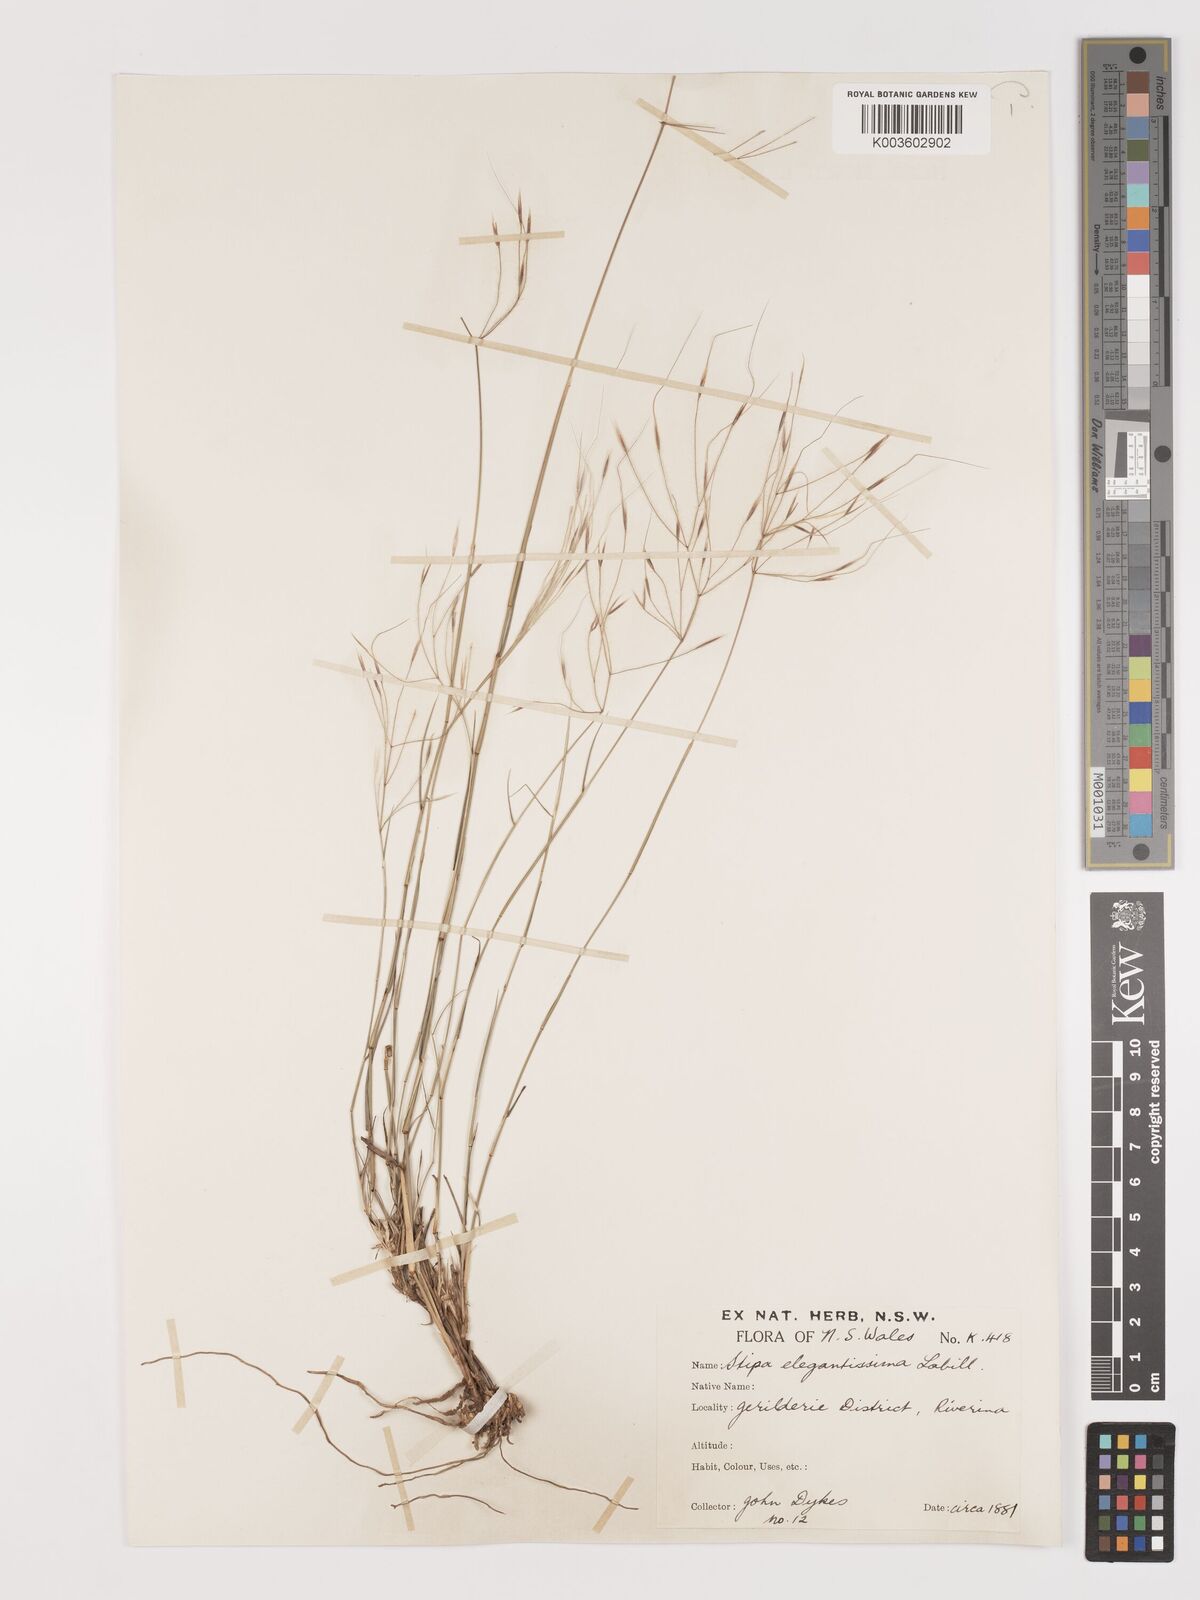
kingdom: Plantae
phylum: Tracheophyta
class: Liliopsida
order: Poales
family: Poaceae
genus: Austrostipa
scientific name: Austrostipa elegantissima
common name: Feather spear grass
